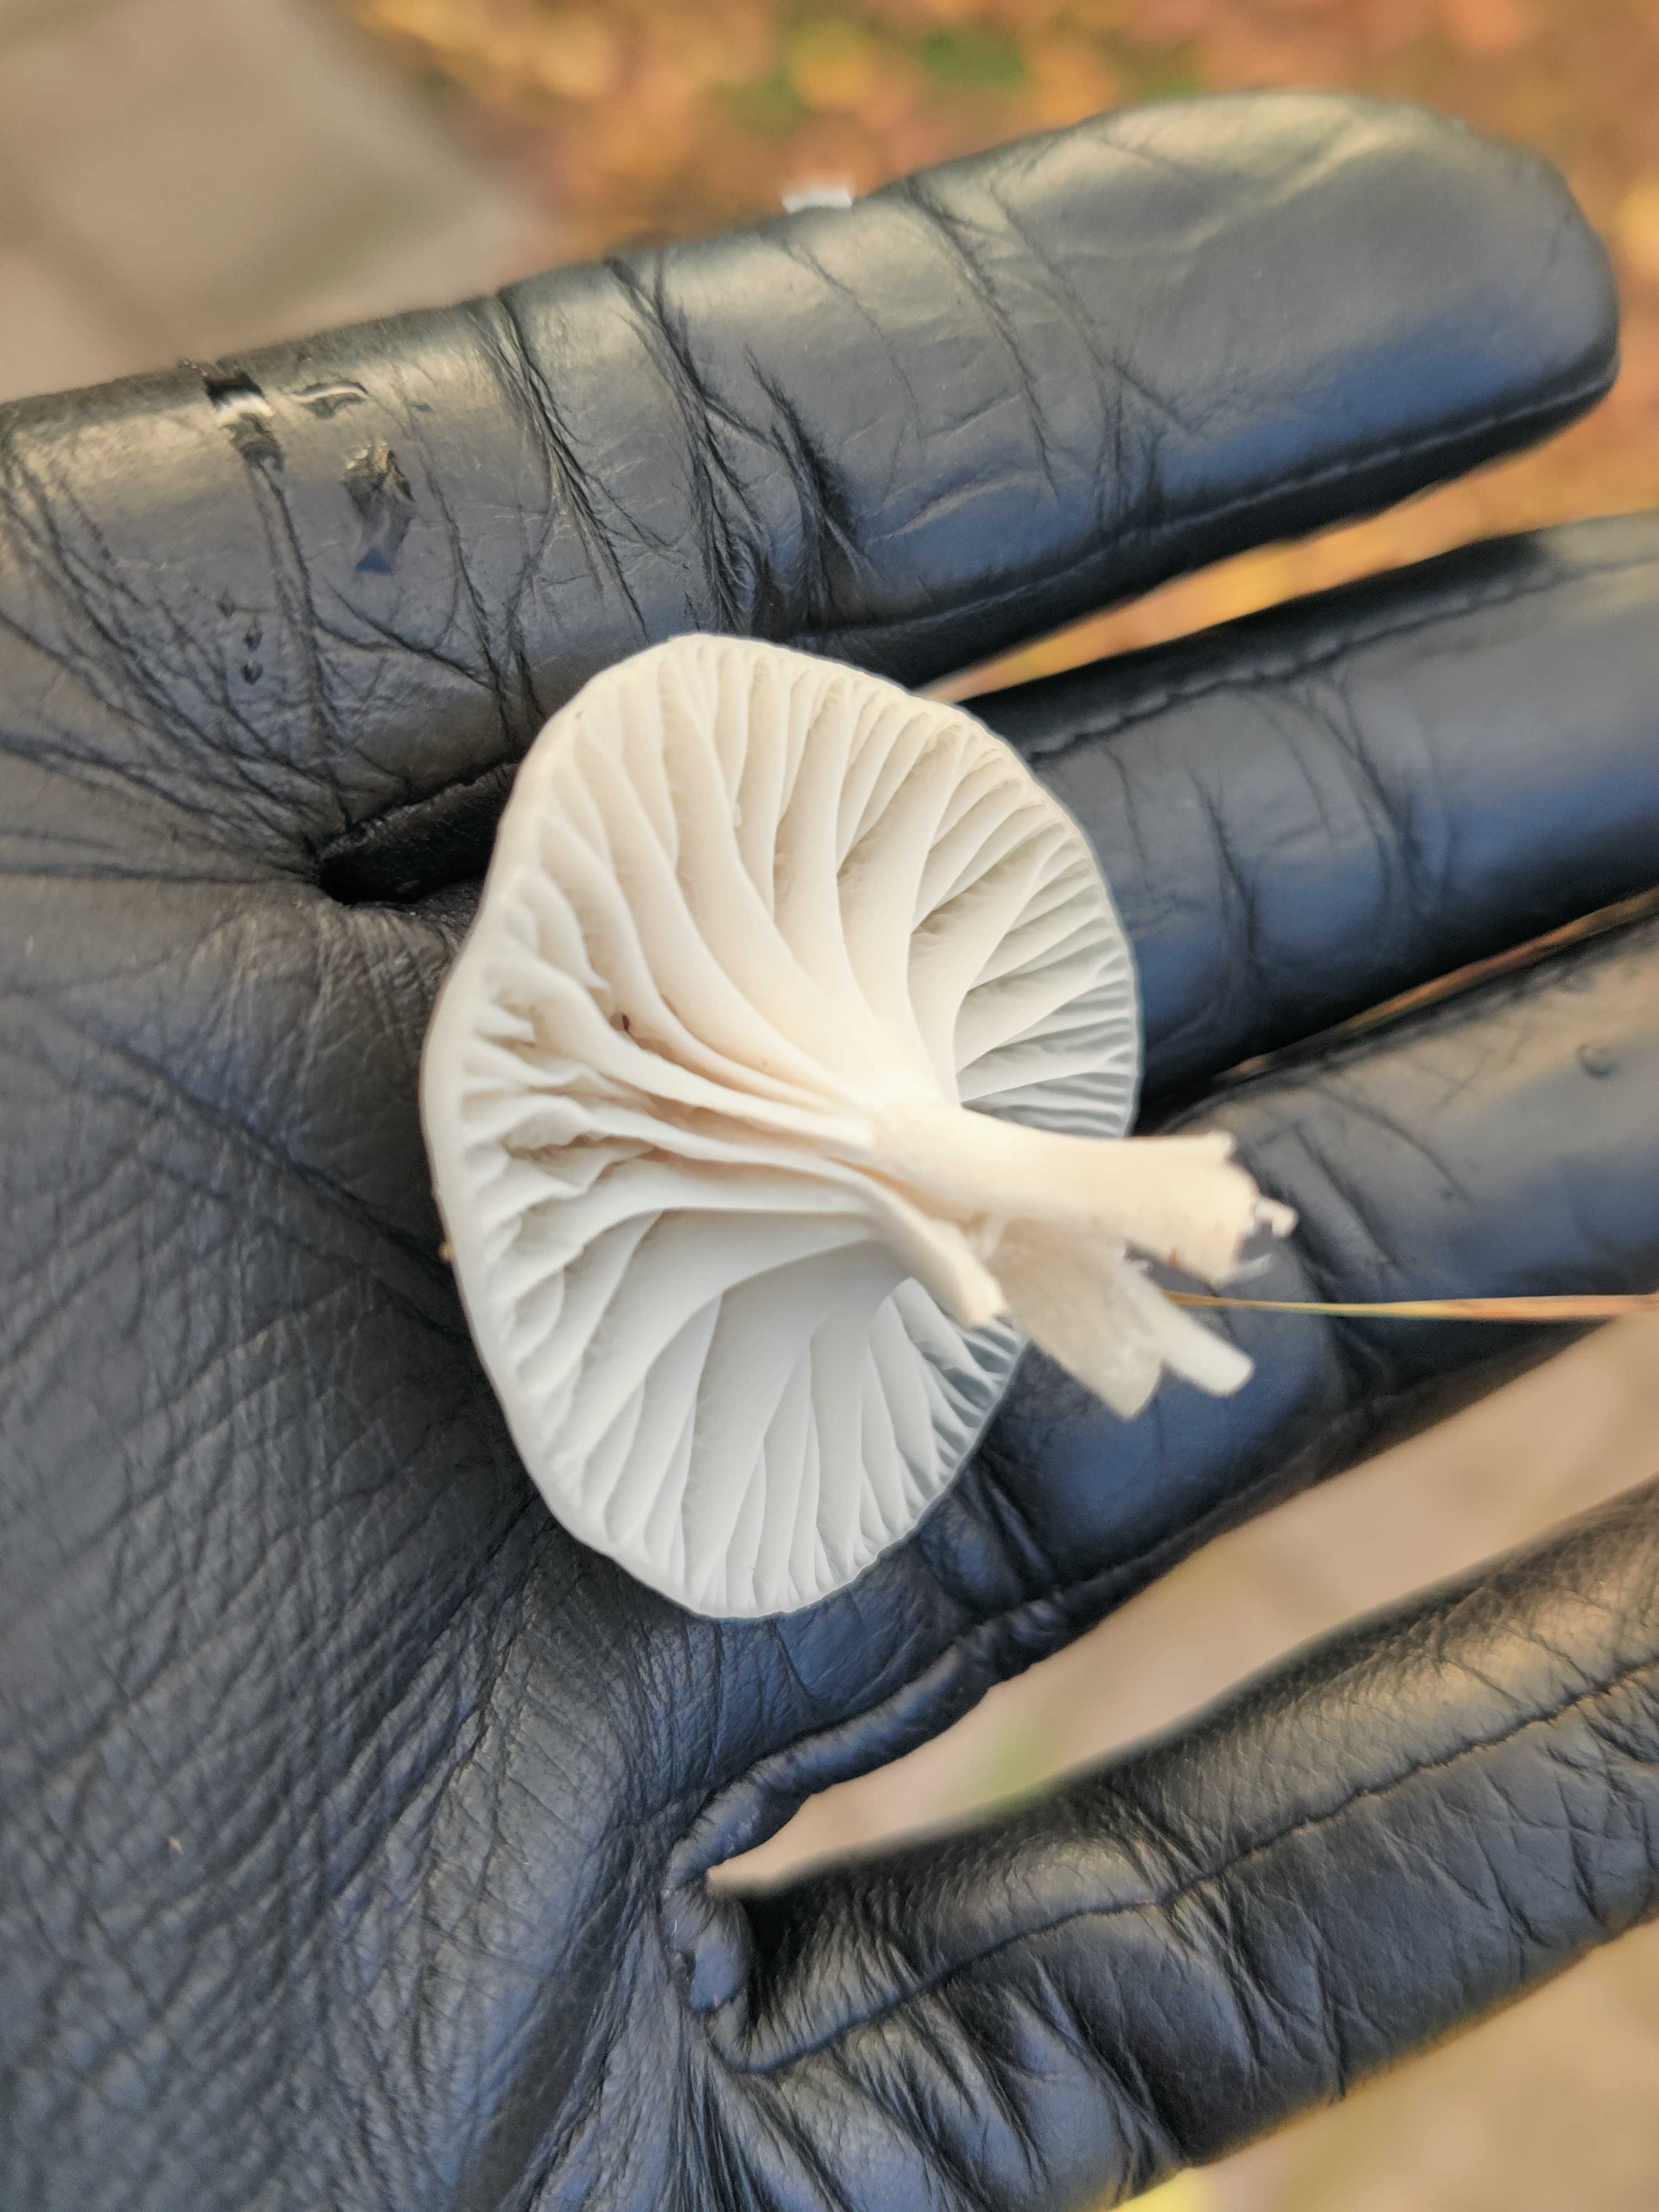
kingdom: Fungi
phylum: Basidiomycota
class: Agaricomycetes
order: Agaricales
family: Hygrophoraceae
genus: Cuphophyllus
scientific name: Cuphophyllus
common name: vokshat
